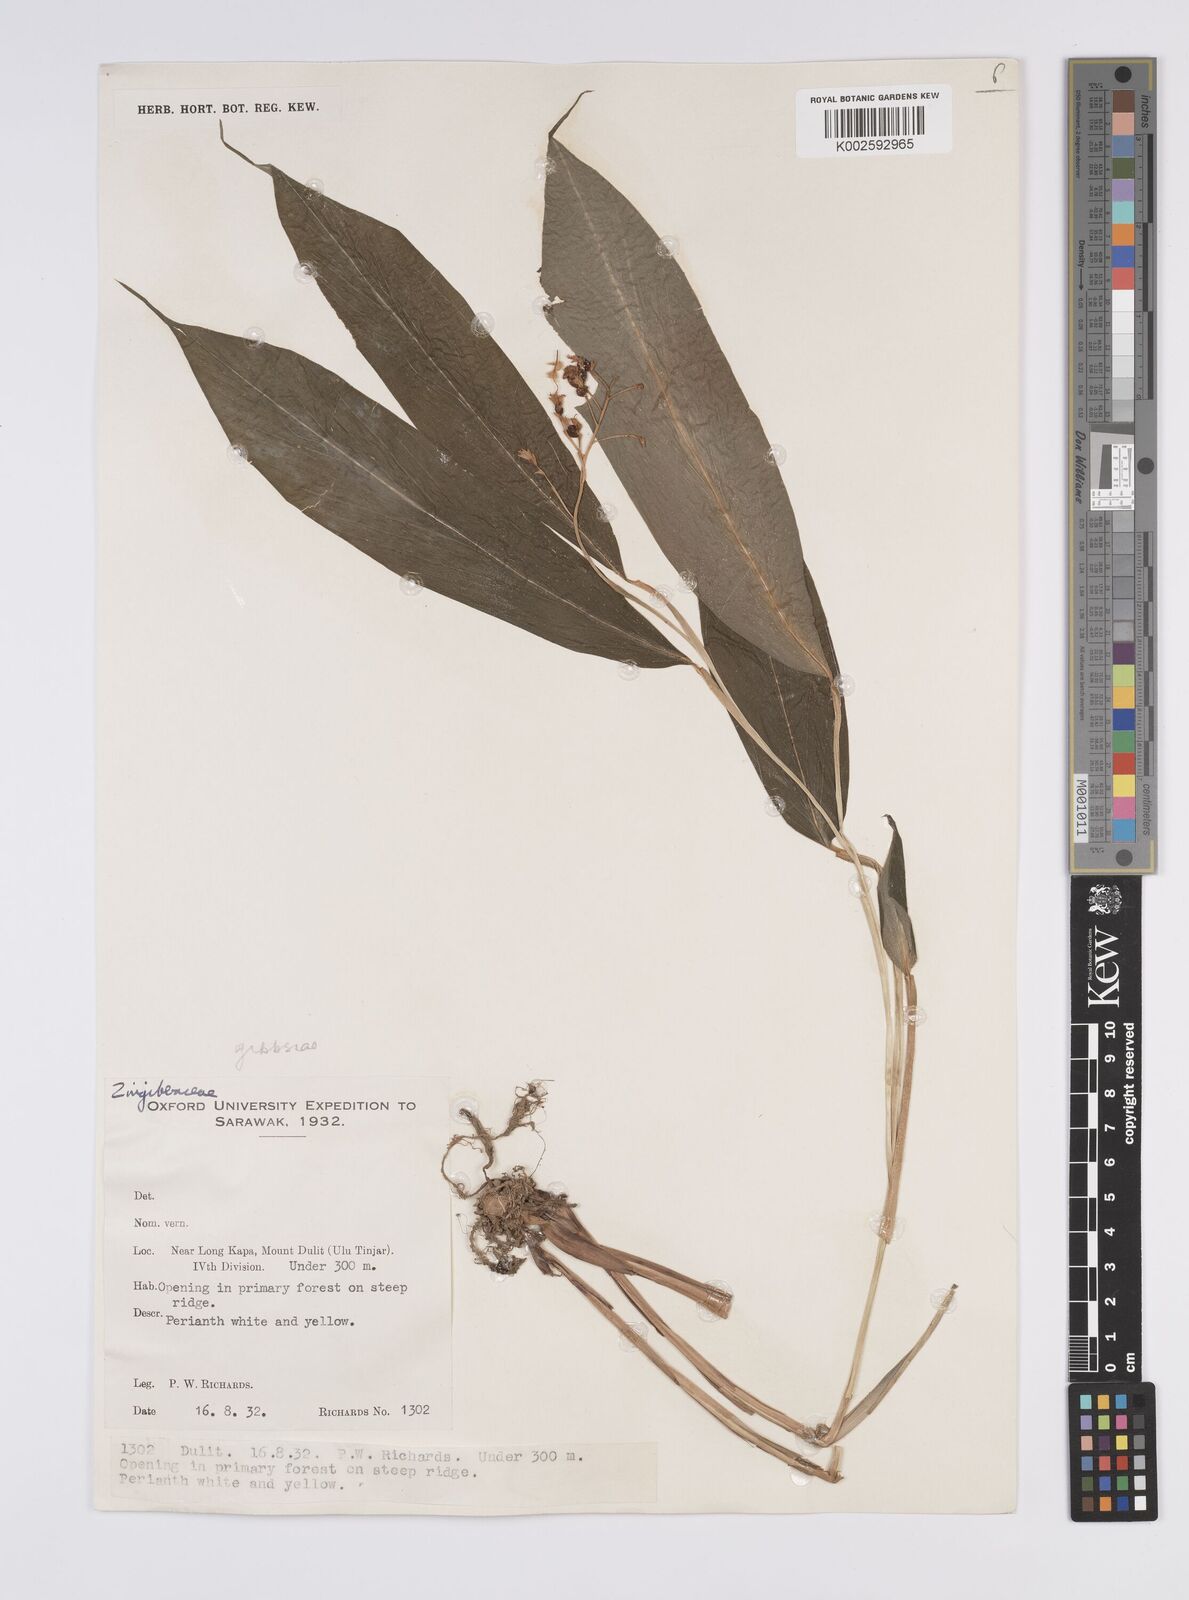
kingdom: Plantae
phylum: Tracheophyta
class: Liliopsida
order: Zingiberales
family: Zingiberaceae
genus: Globba
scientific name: Globba tricolor
